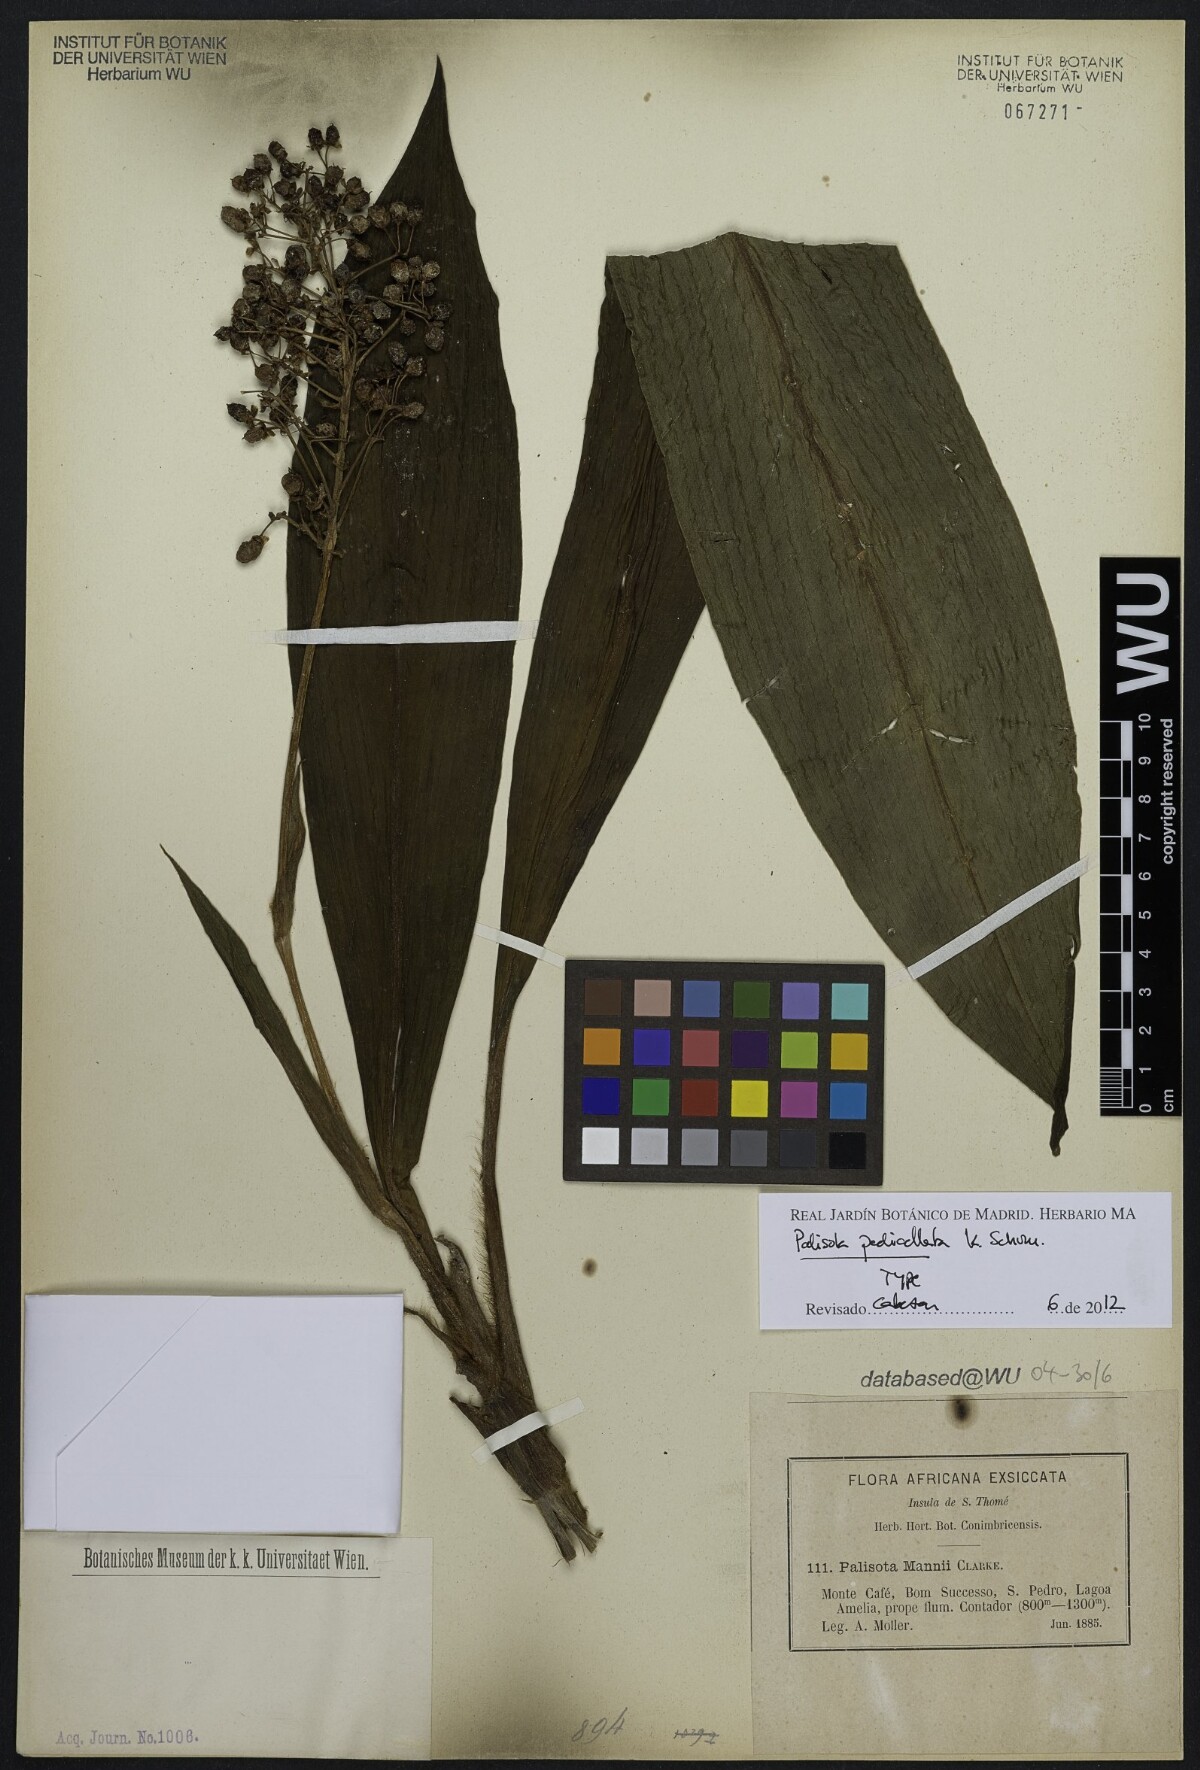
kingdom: Plantae
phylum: Tracheophyta
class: Liliopsida
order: Commelinales
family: Commelinaceae
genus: Palisota
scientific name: Palisota pedicellata
